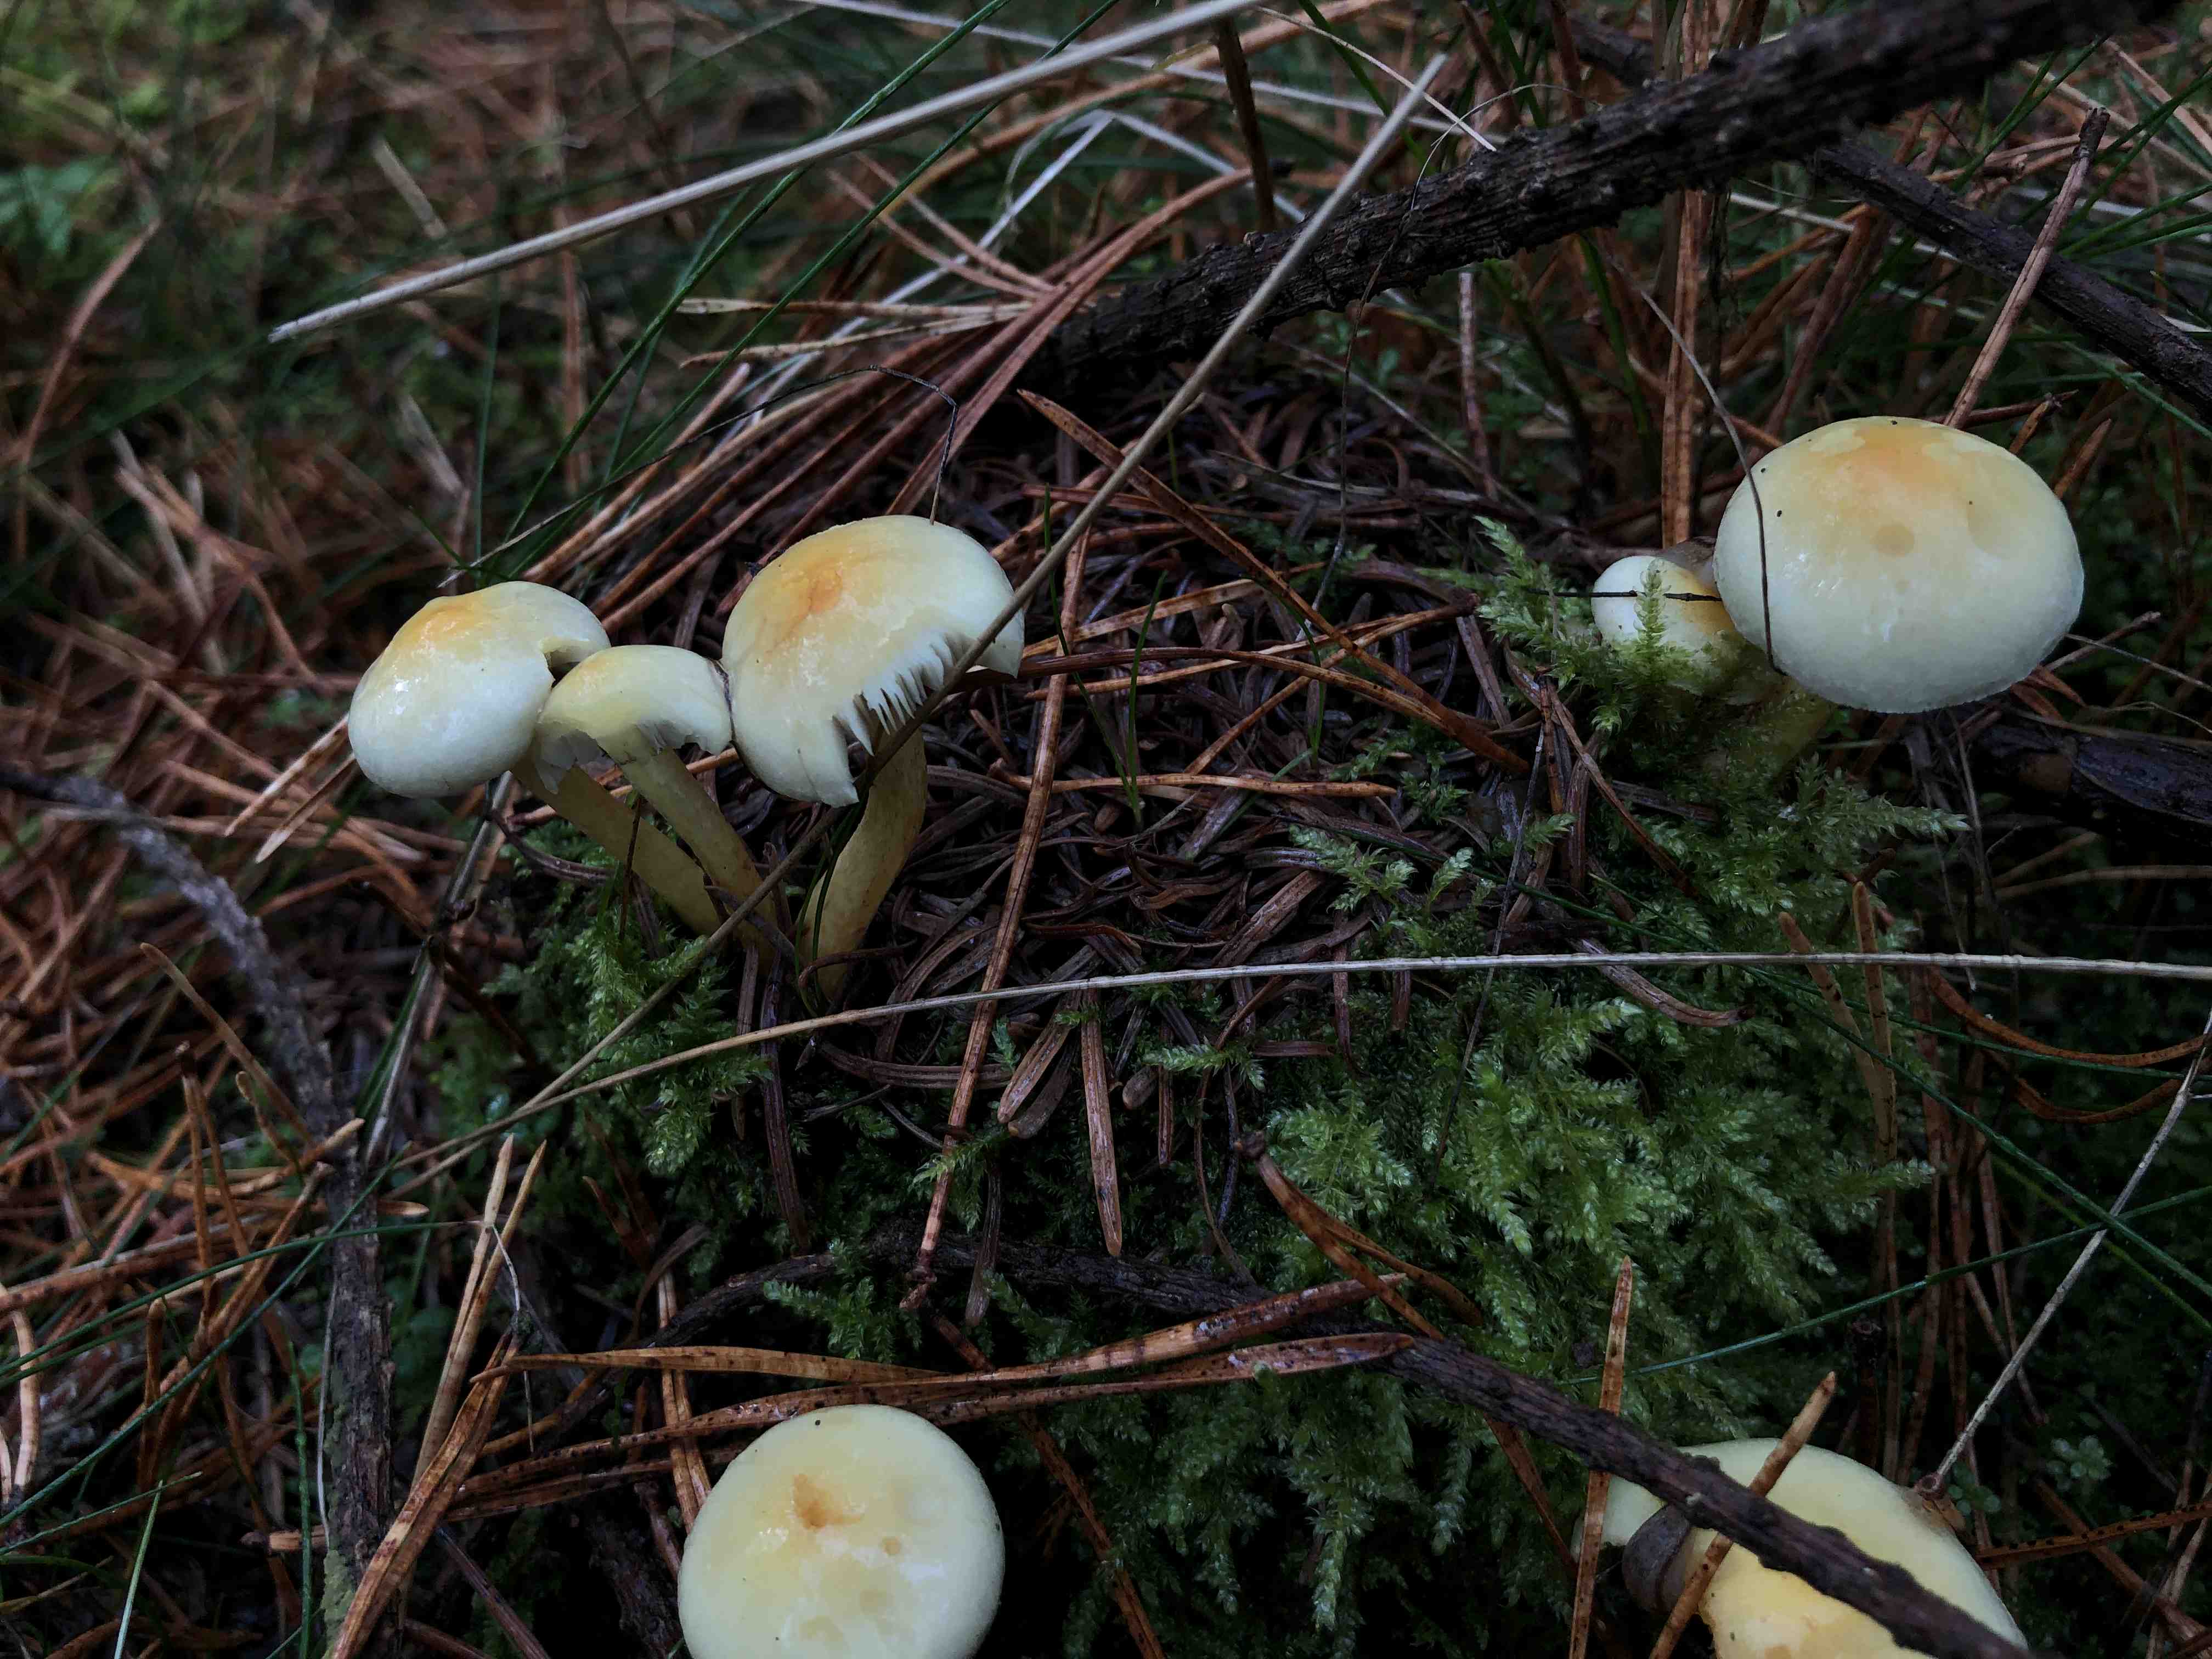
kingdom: Fungi
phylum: Basidiomycota
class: Agaricomycetes
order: Agaricales
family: Strophariaceae
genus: Hypholoma
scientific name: Hypholoma fasciculare
